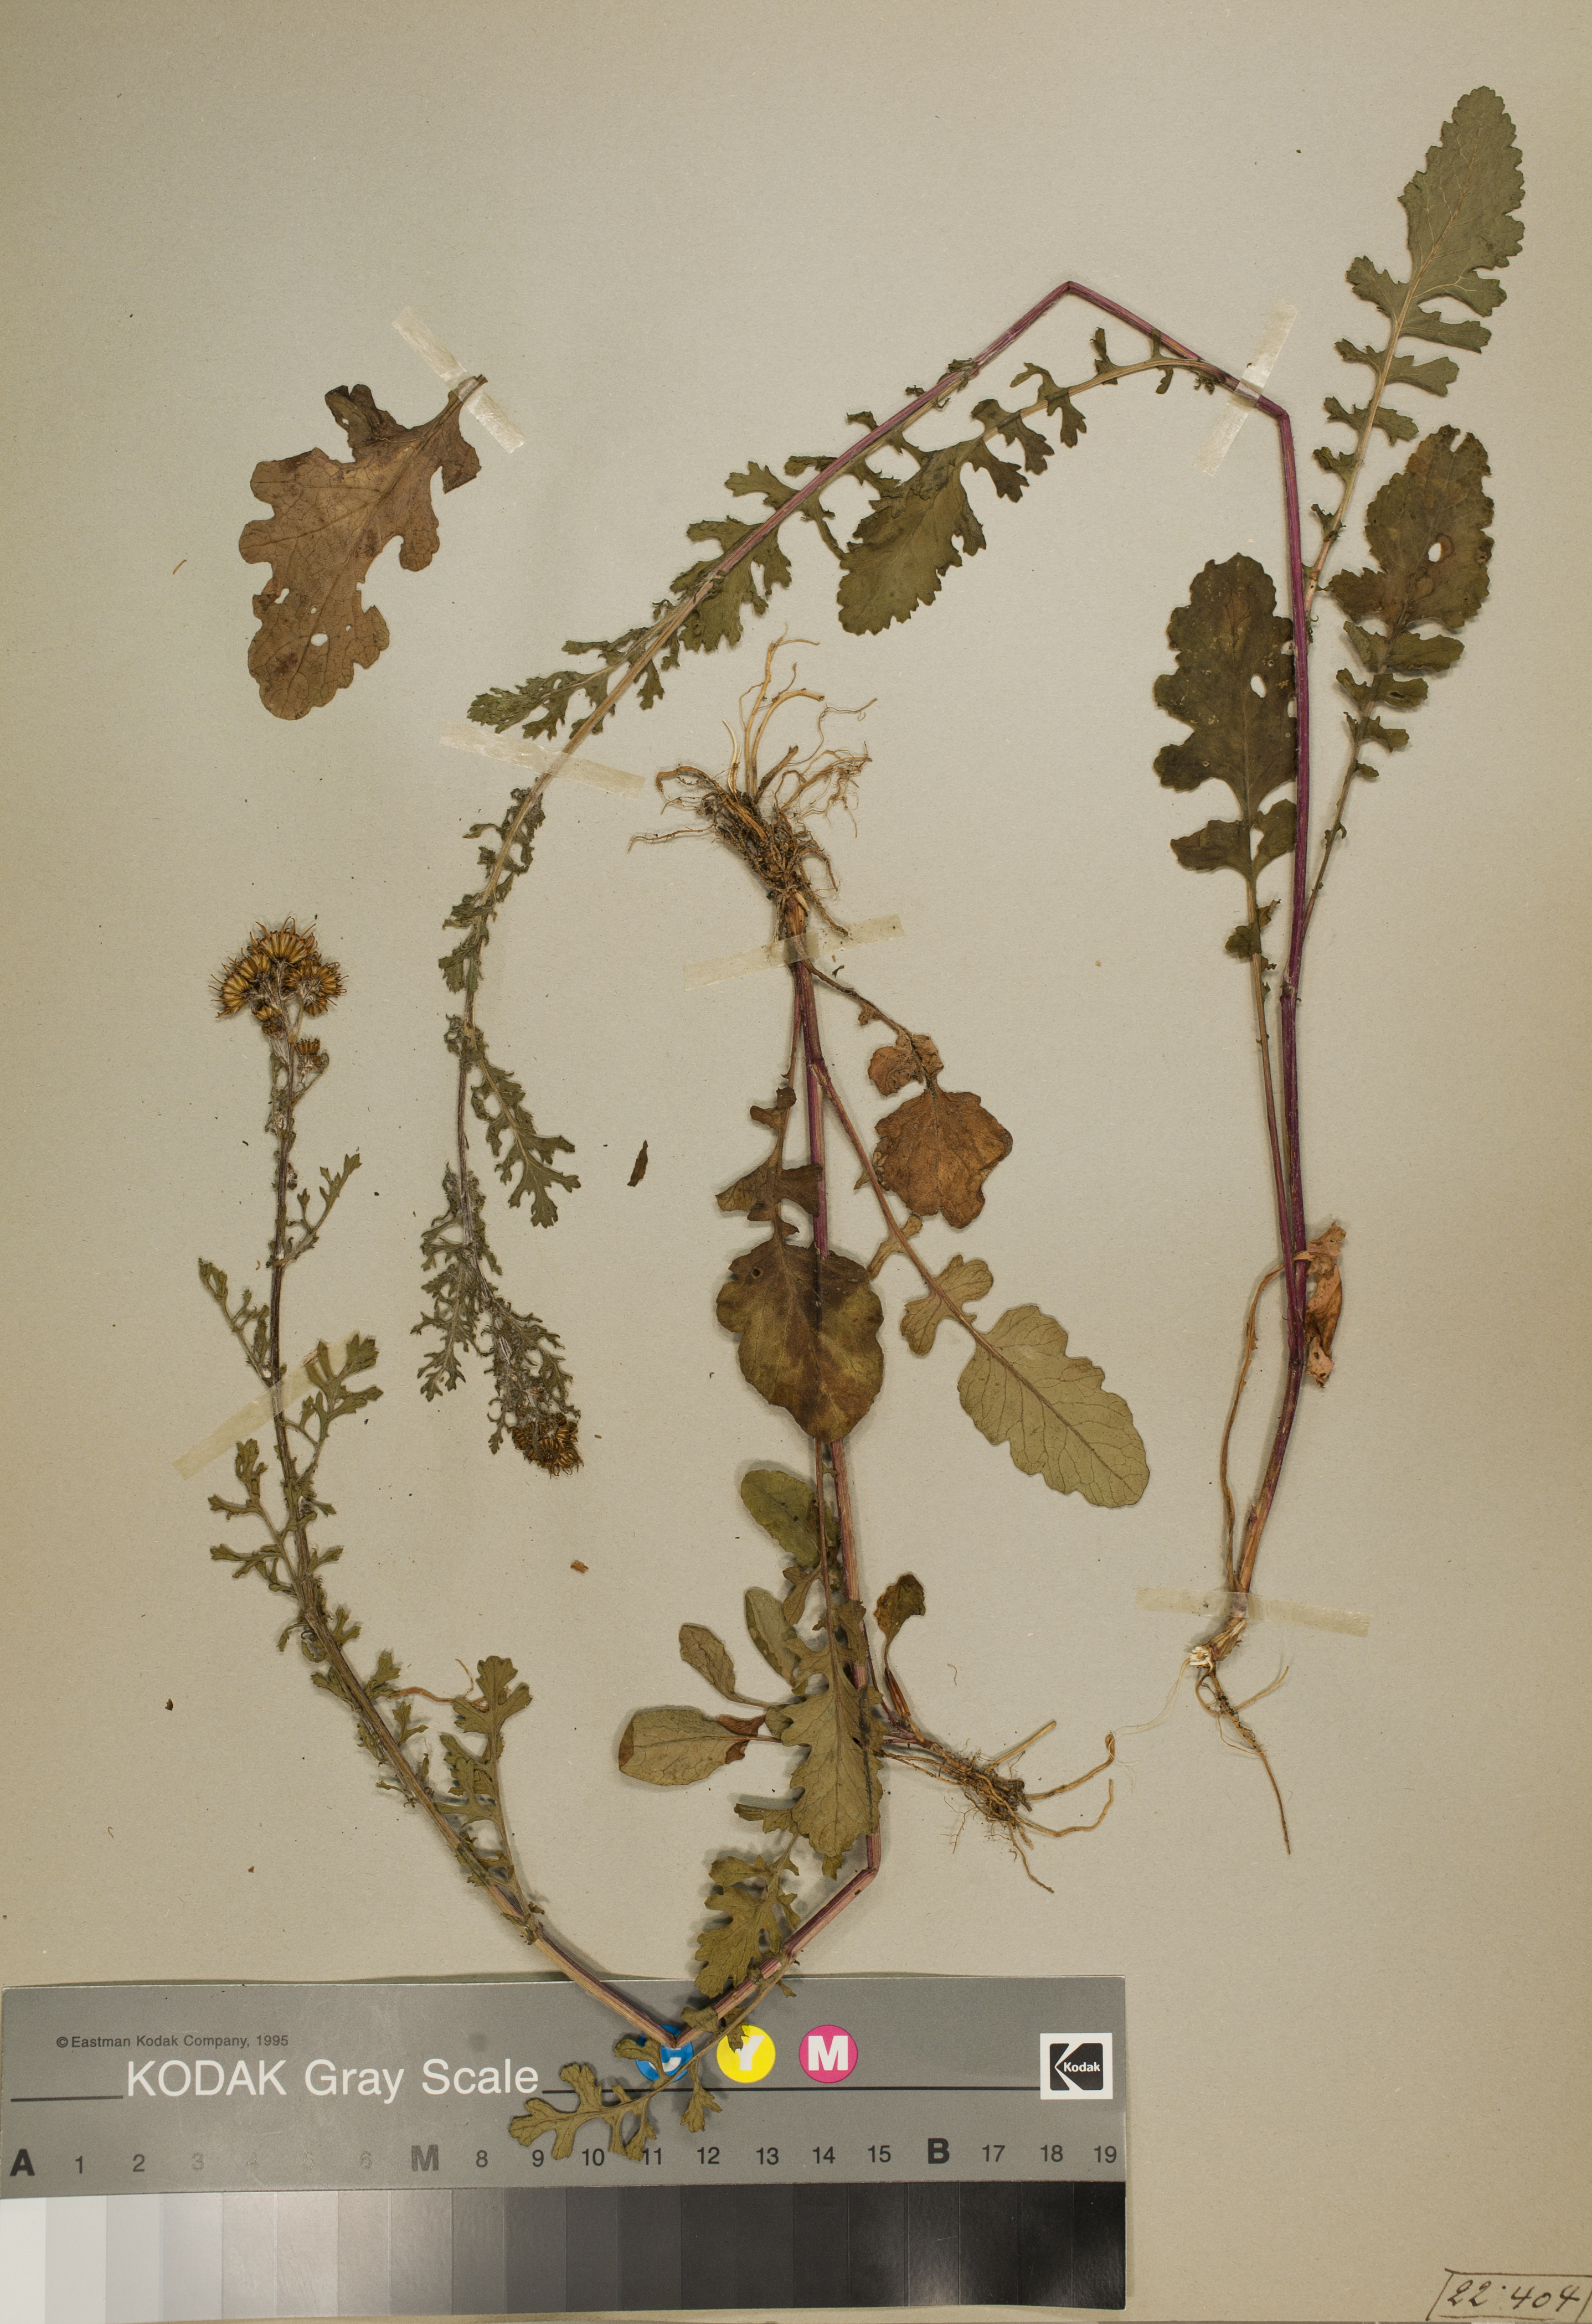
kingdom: Plantae
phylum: Tracheophyta
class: Magnoliopsida
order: Asterales
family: Asteraceae
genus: Jacobaea
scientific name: Jacobaea vulgaris
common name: Stinking willie
